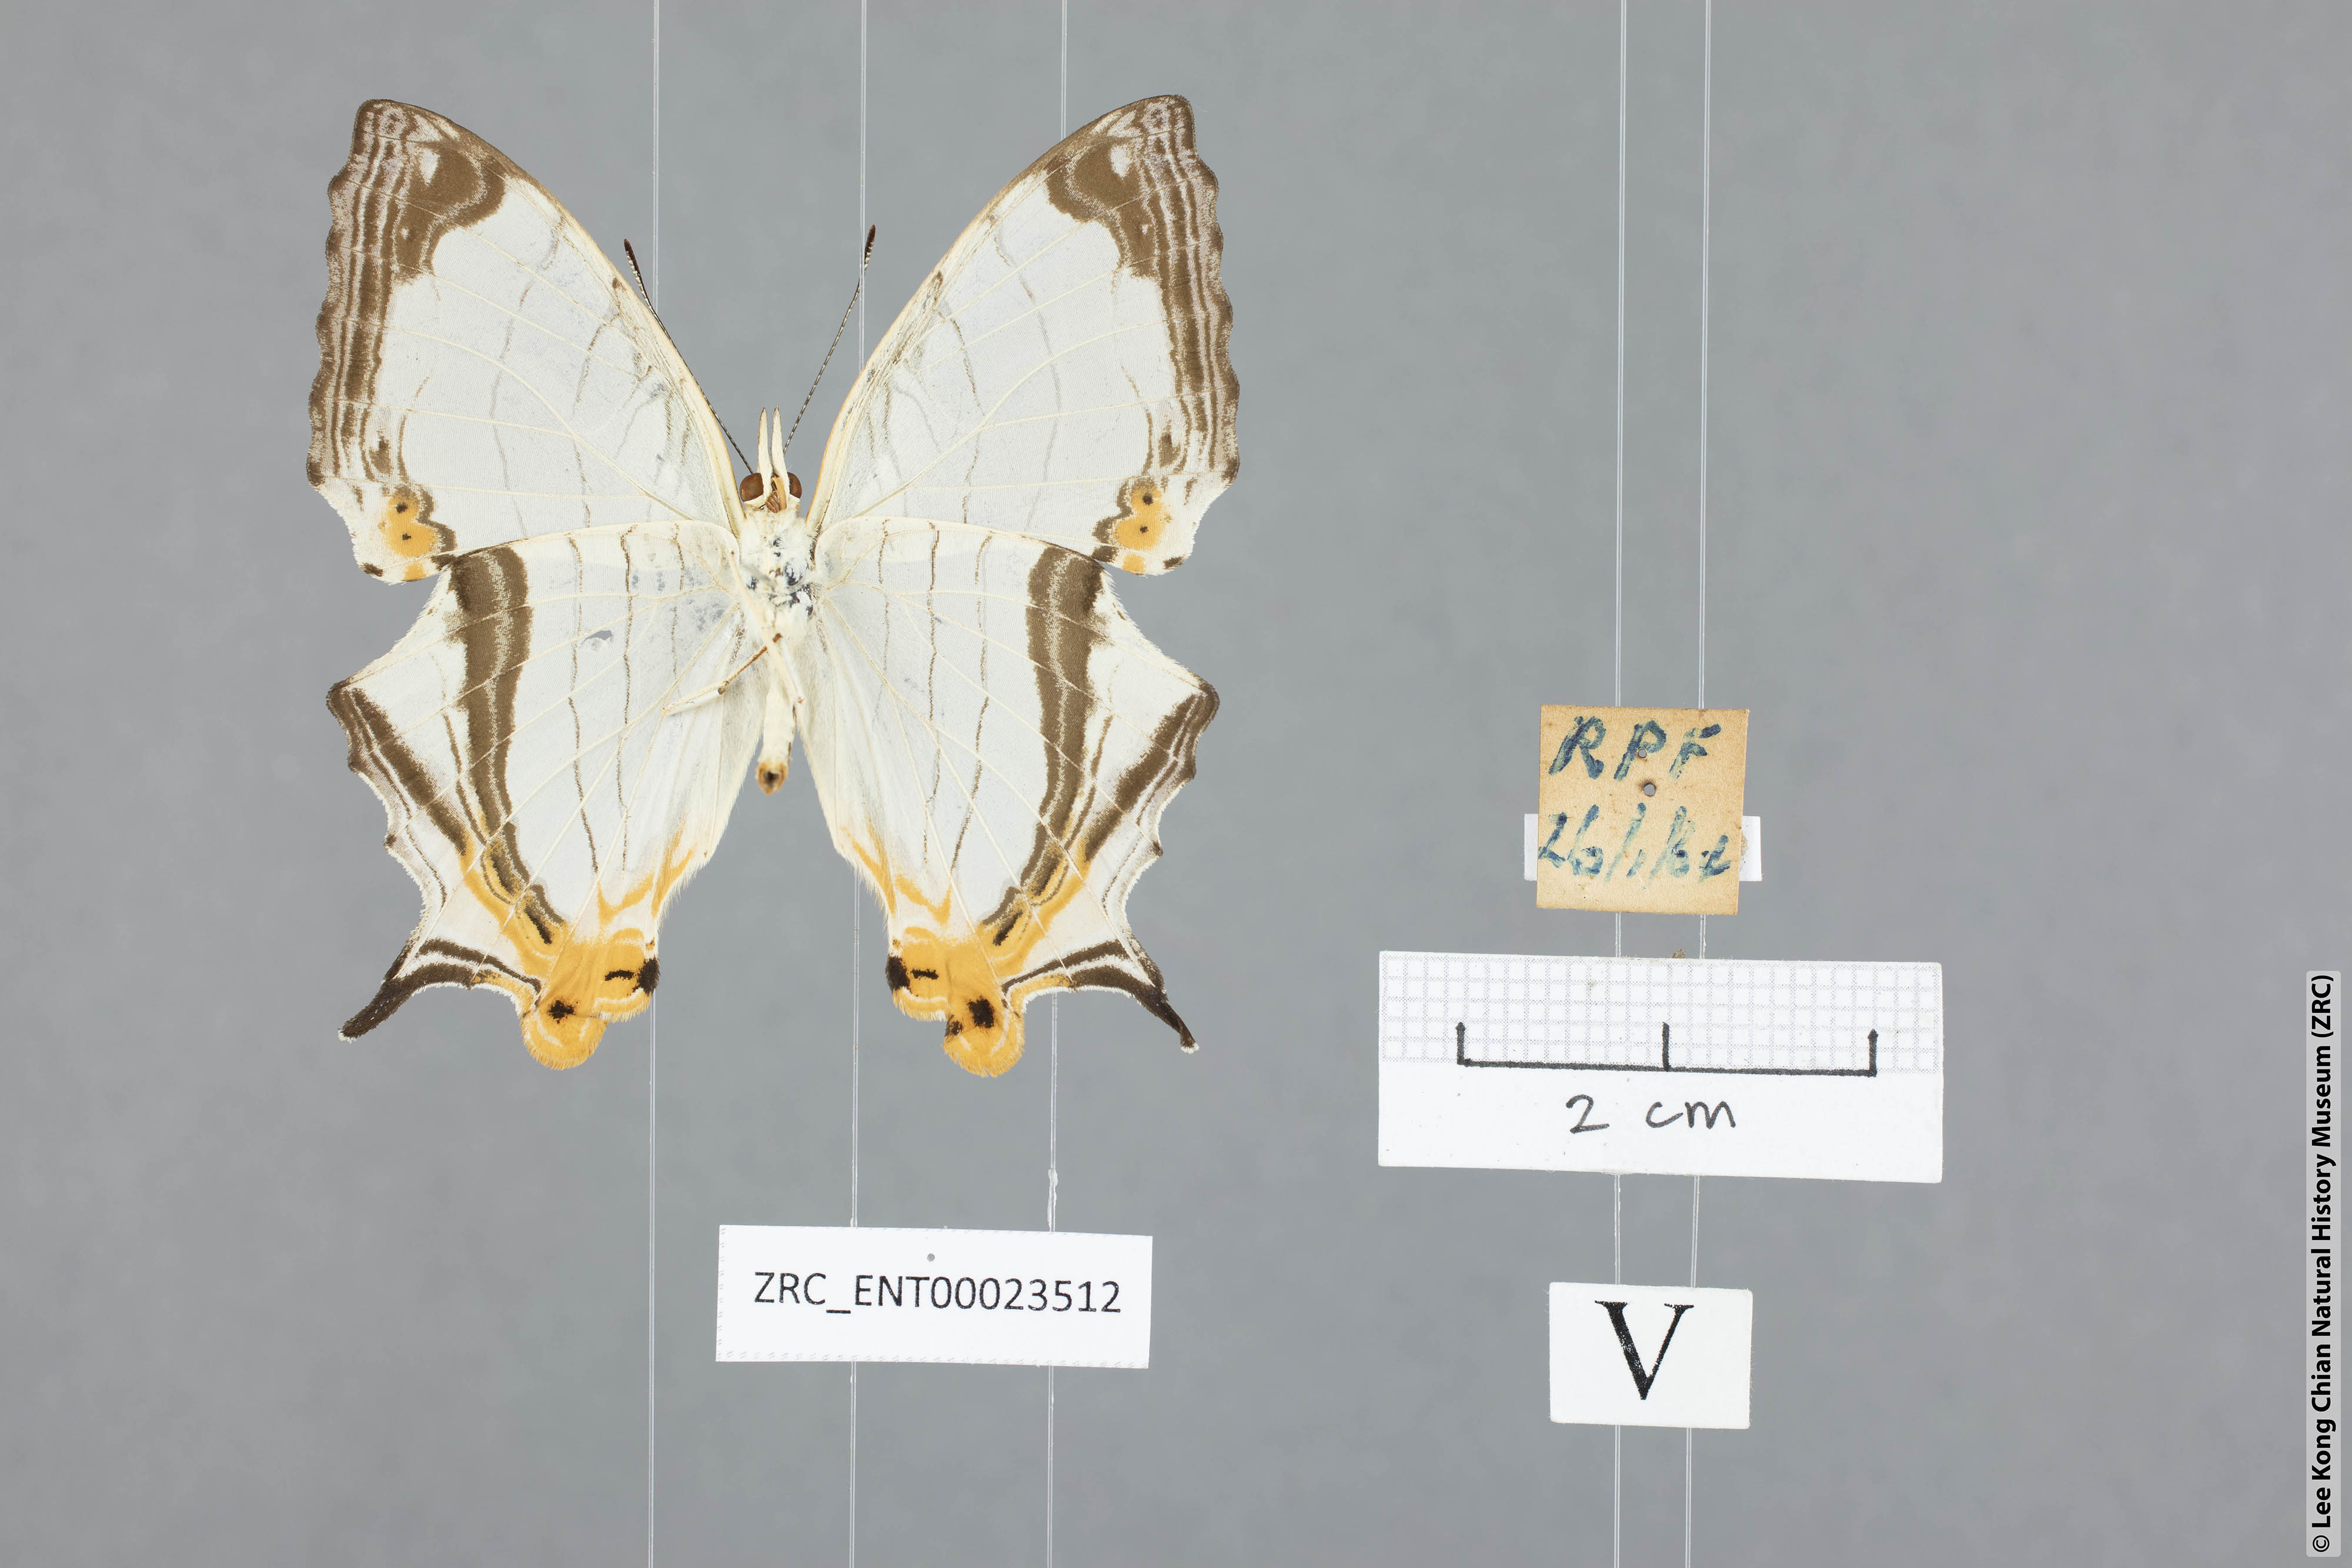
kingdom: Animalia
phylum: Arthropoda
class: Insecta
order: Lepidoptera
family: Nymphalidae
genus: Cyrestis
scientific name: Cyrestis nivea
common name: Straight line mapwing
